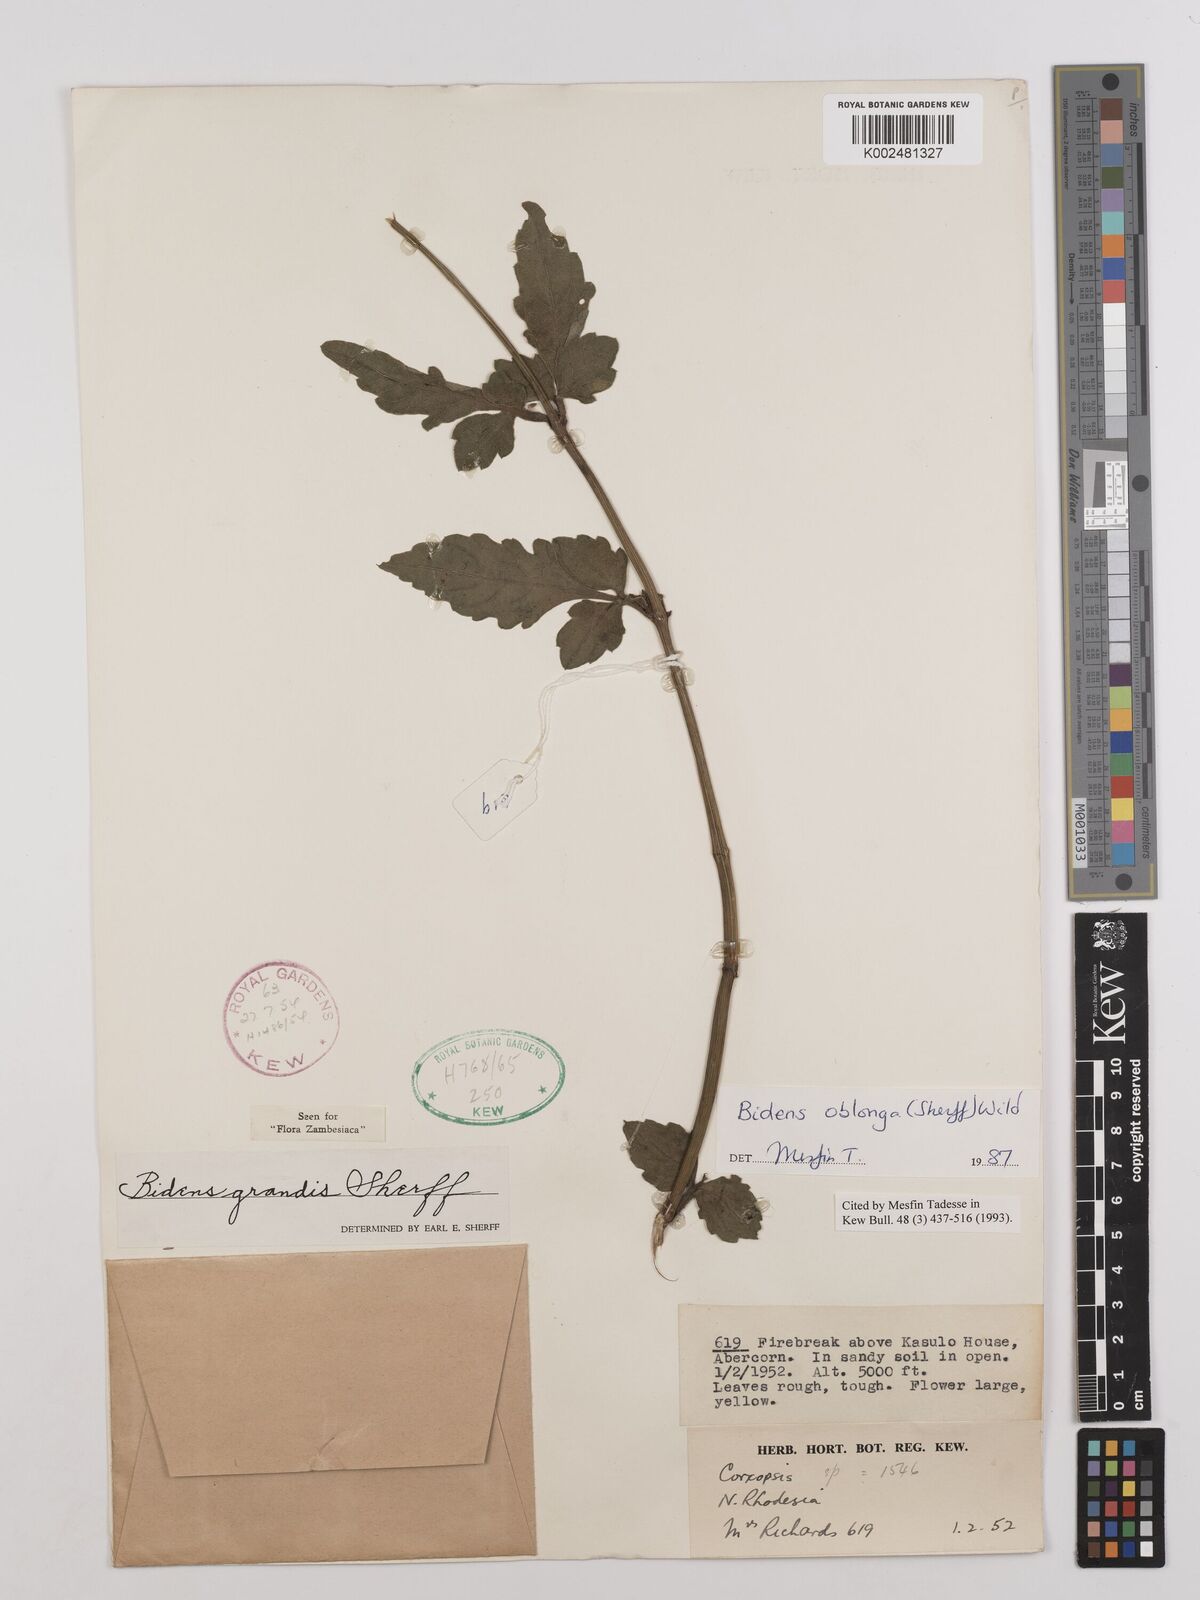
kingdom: Plantae
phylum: Tracheophyta
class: Magnoliopsida
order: Asterales
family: Asteraceae
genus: Bidens
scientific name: Bidens oblonga
